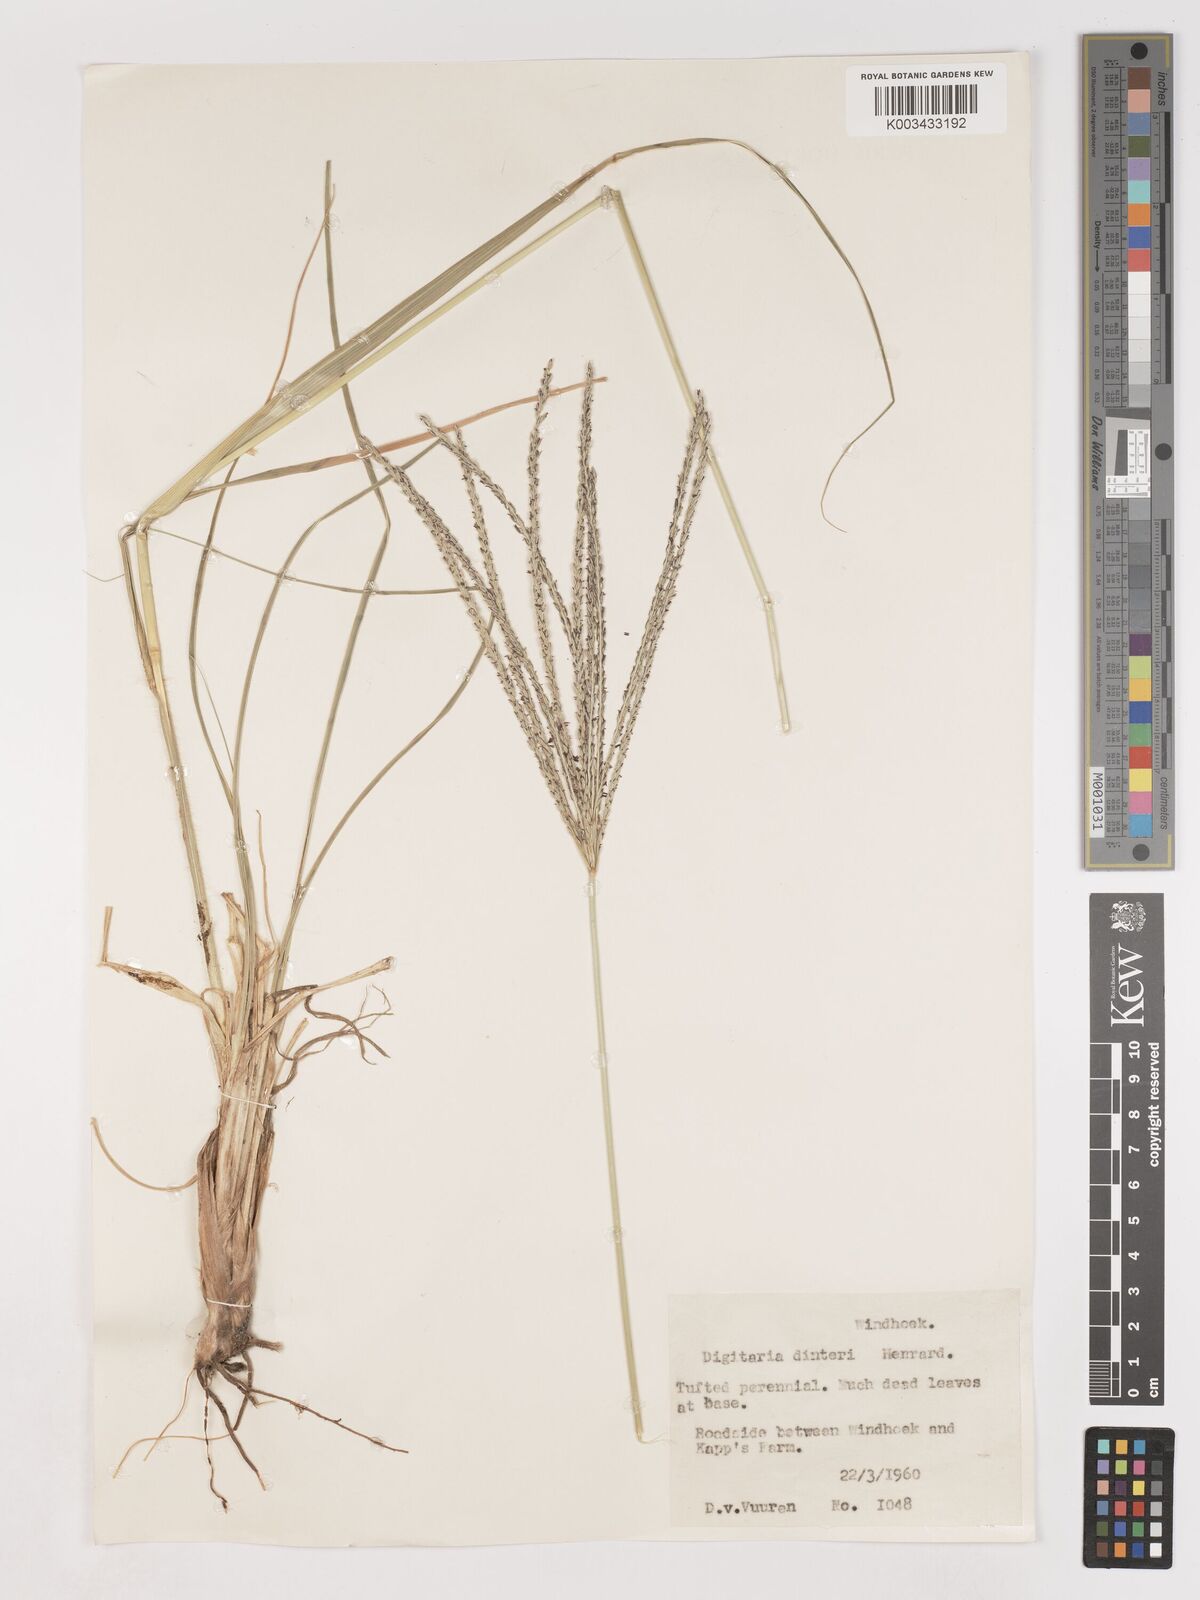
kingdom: Plantae
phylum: Tracheophyta
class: Liliopsida
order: Poales
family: Poaceae
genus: Digitaria
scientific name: Digitaria eriantha
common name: Digitgrass
